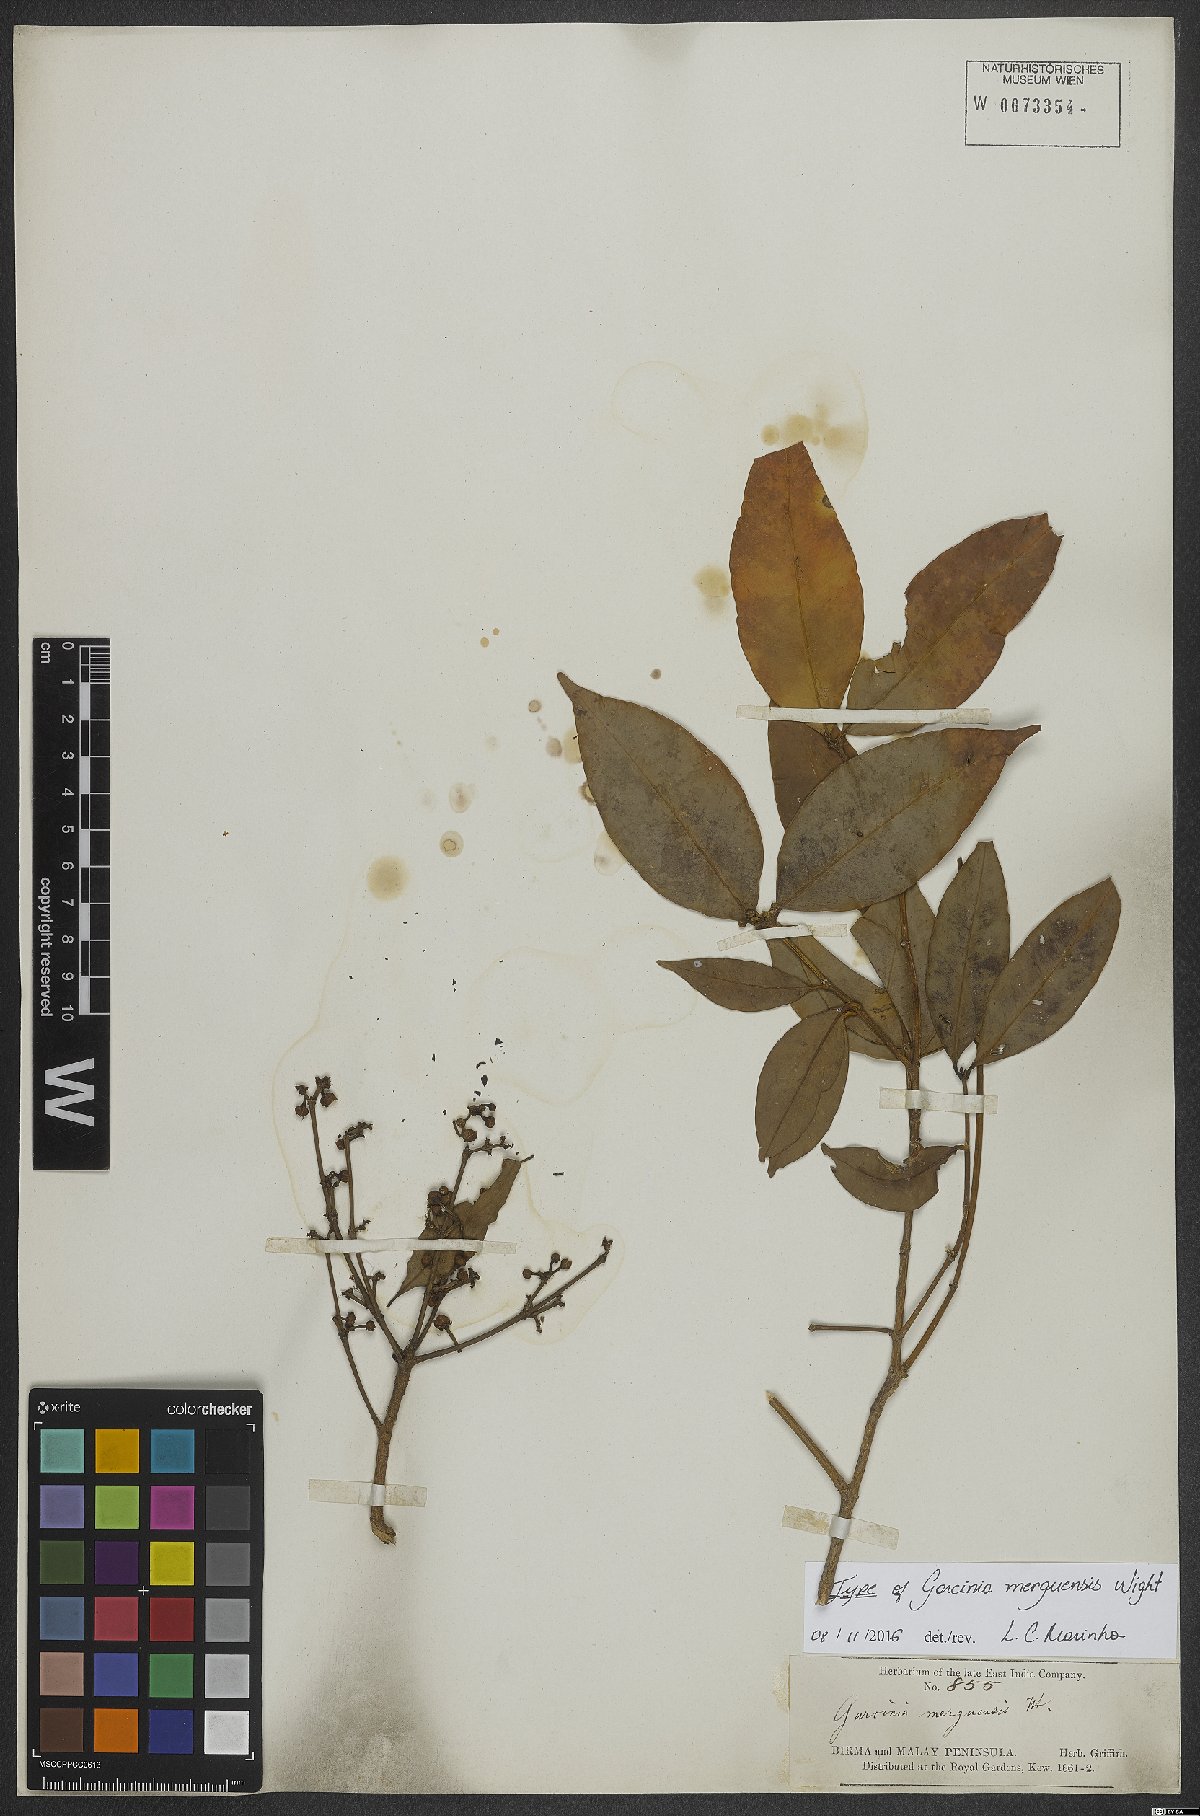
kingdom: Plantae
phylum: Tracheophyta
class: Magnoliopsida
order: Malpighiales
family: Clusiaceae
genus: Garcinia
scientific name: Garcinia merguensis
